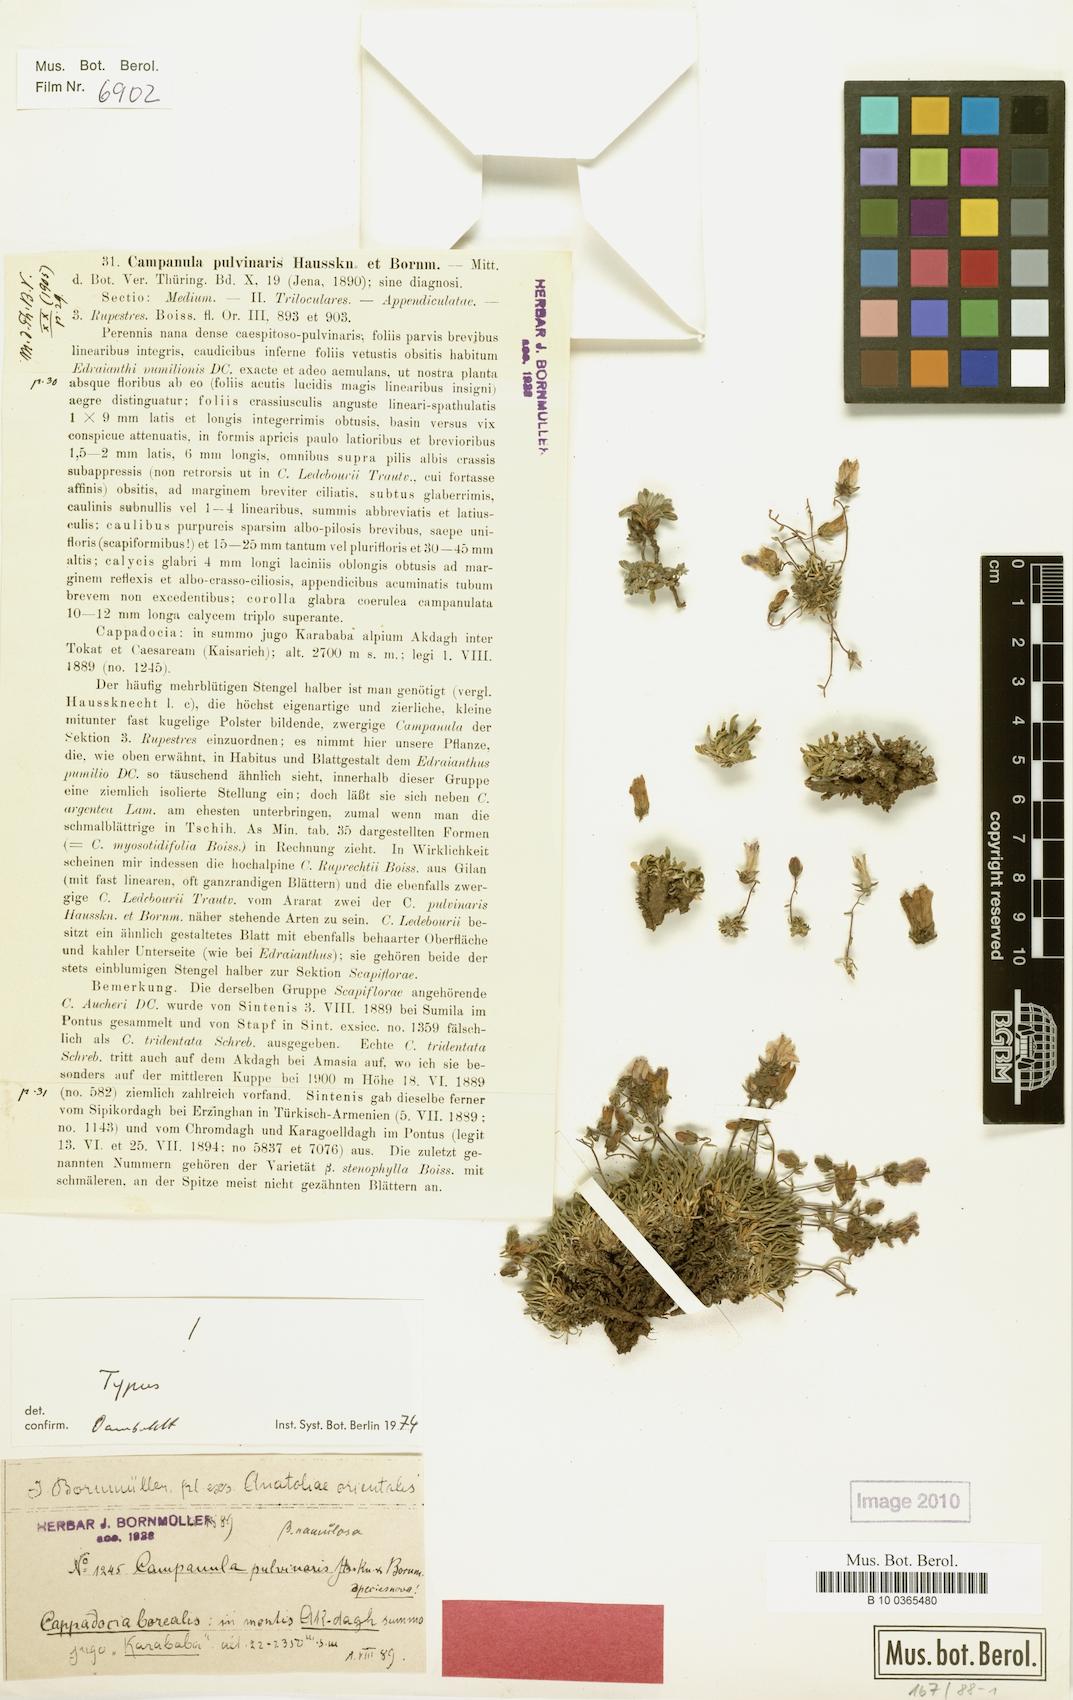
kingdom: Plantae
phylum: Tracheophyta
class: Magnoliopsida
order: Asterales
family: Campanulaceae
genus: Campanula
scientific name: Campanula pulvinaris
